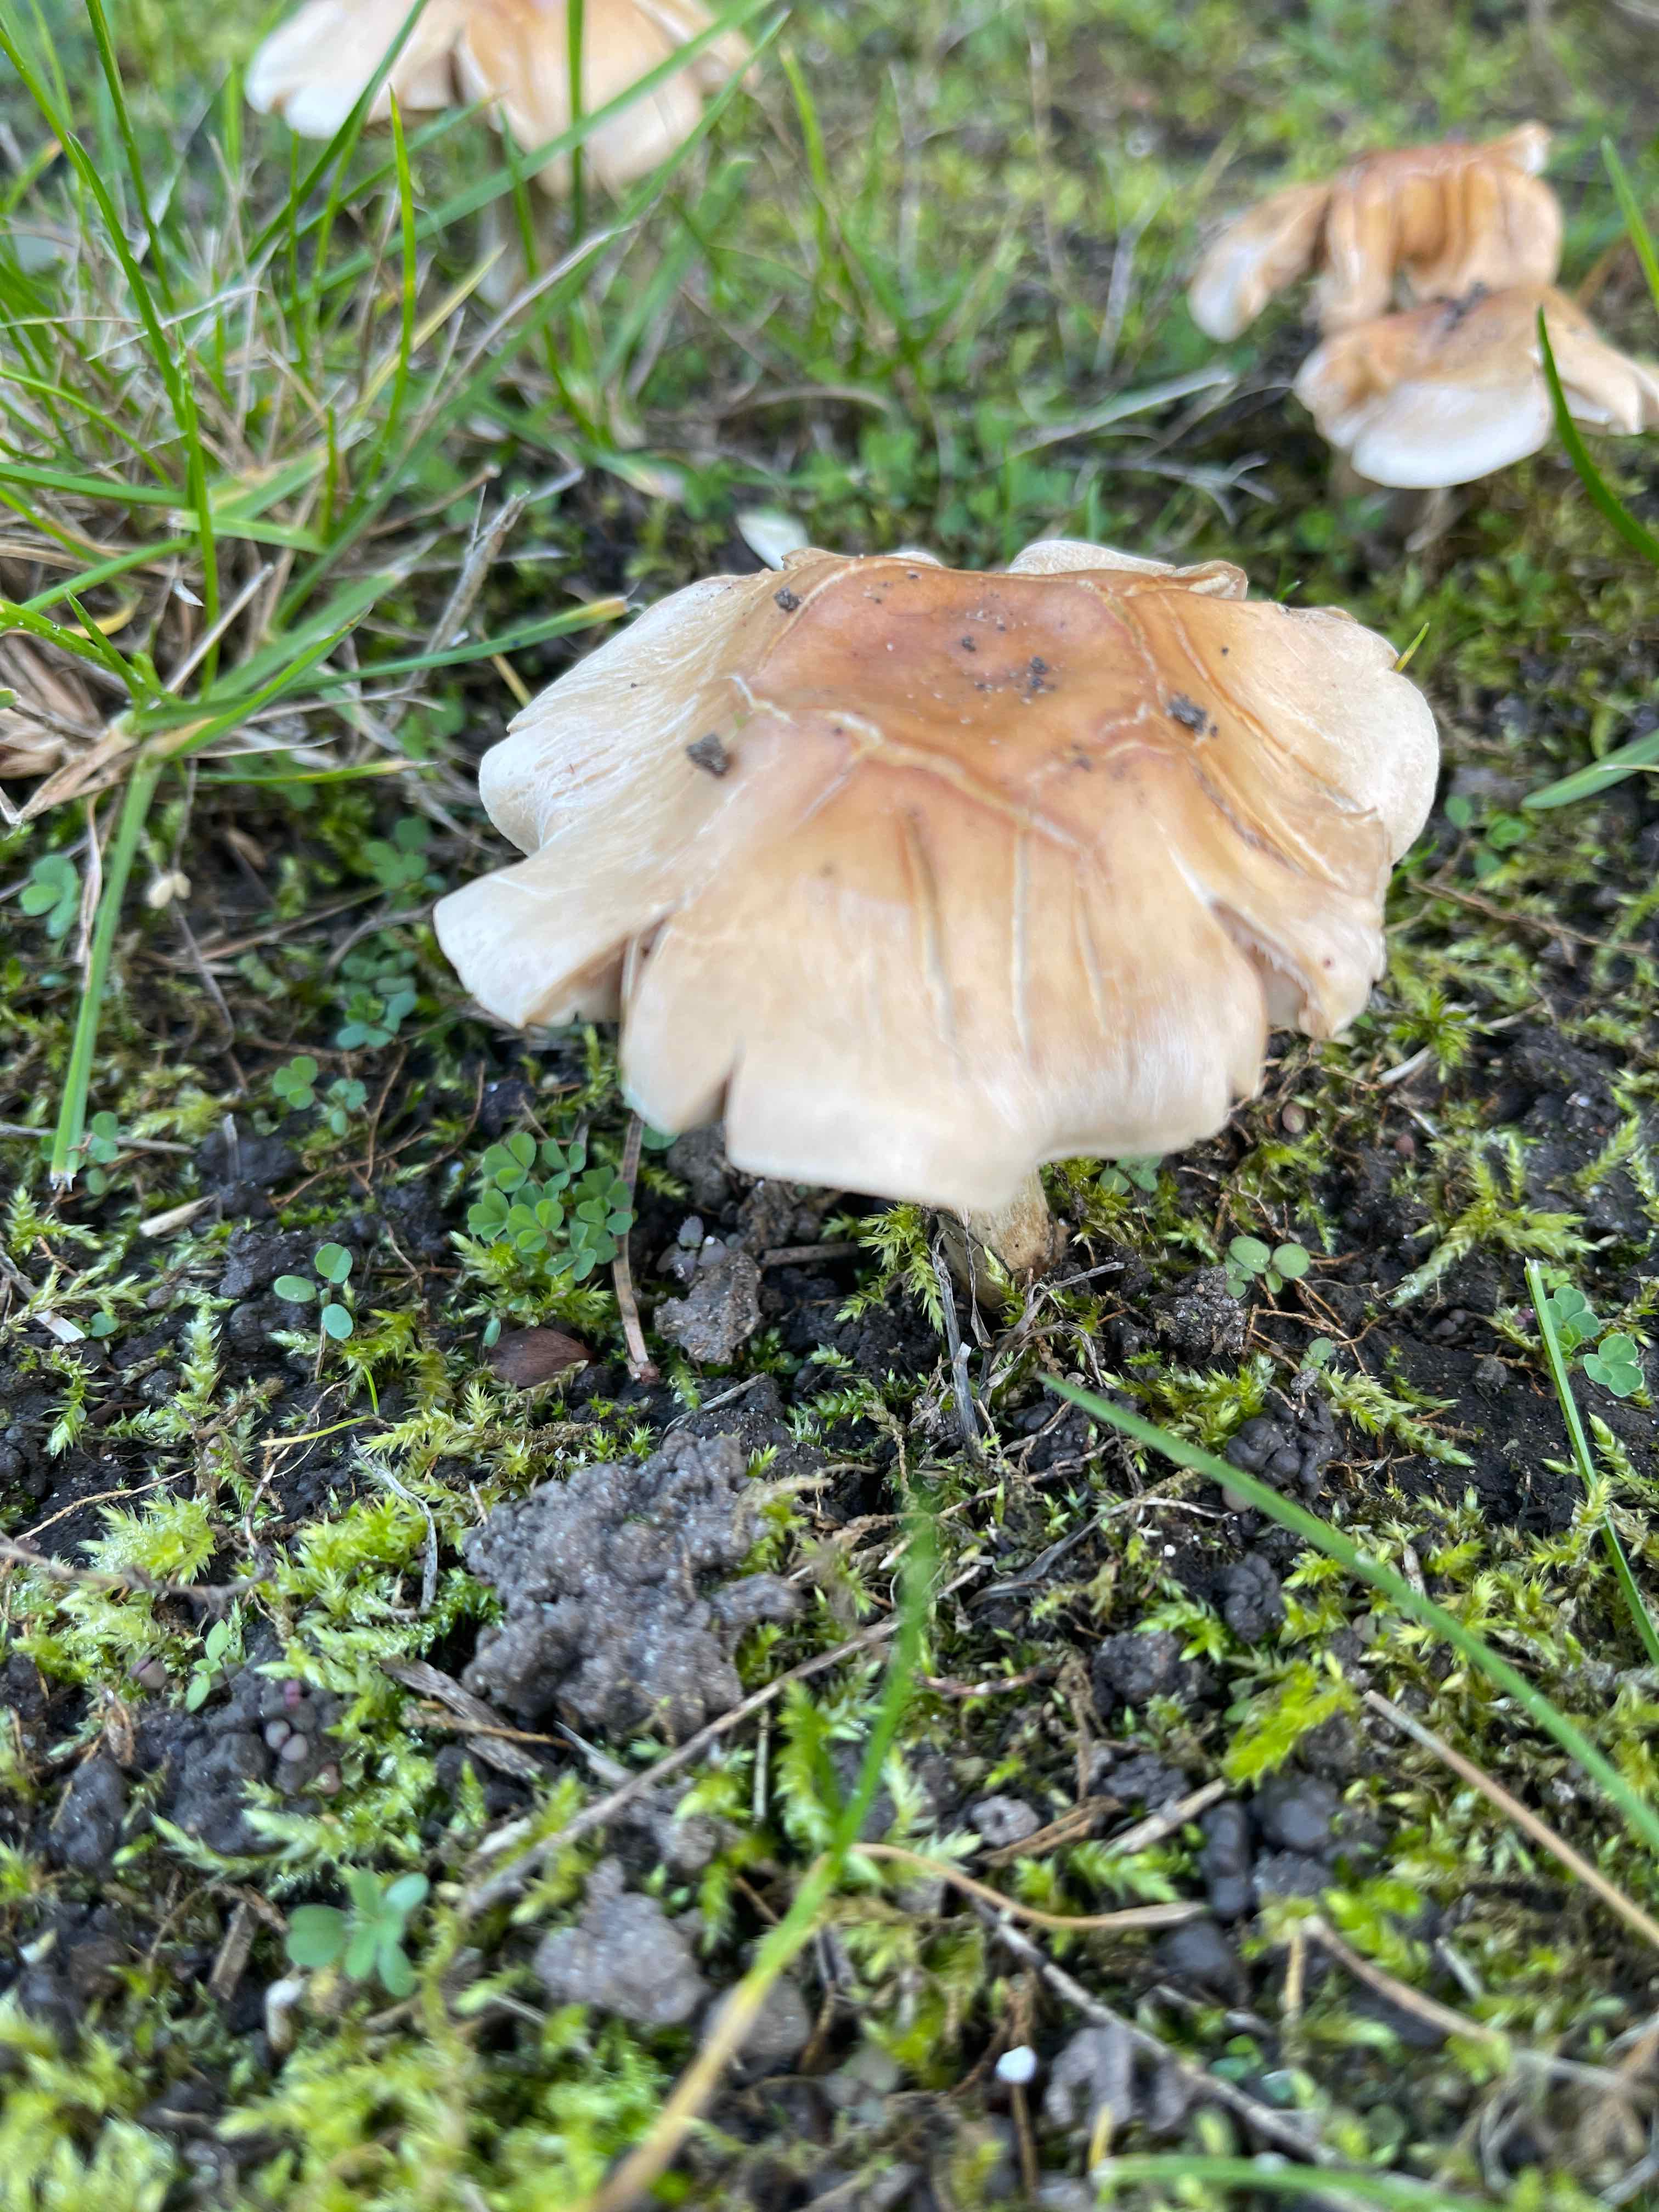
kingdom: Fungi
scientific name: Fungi
